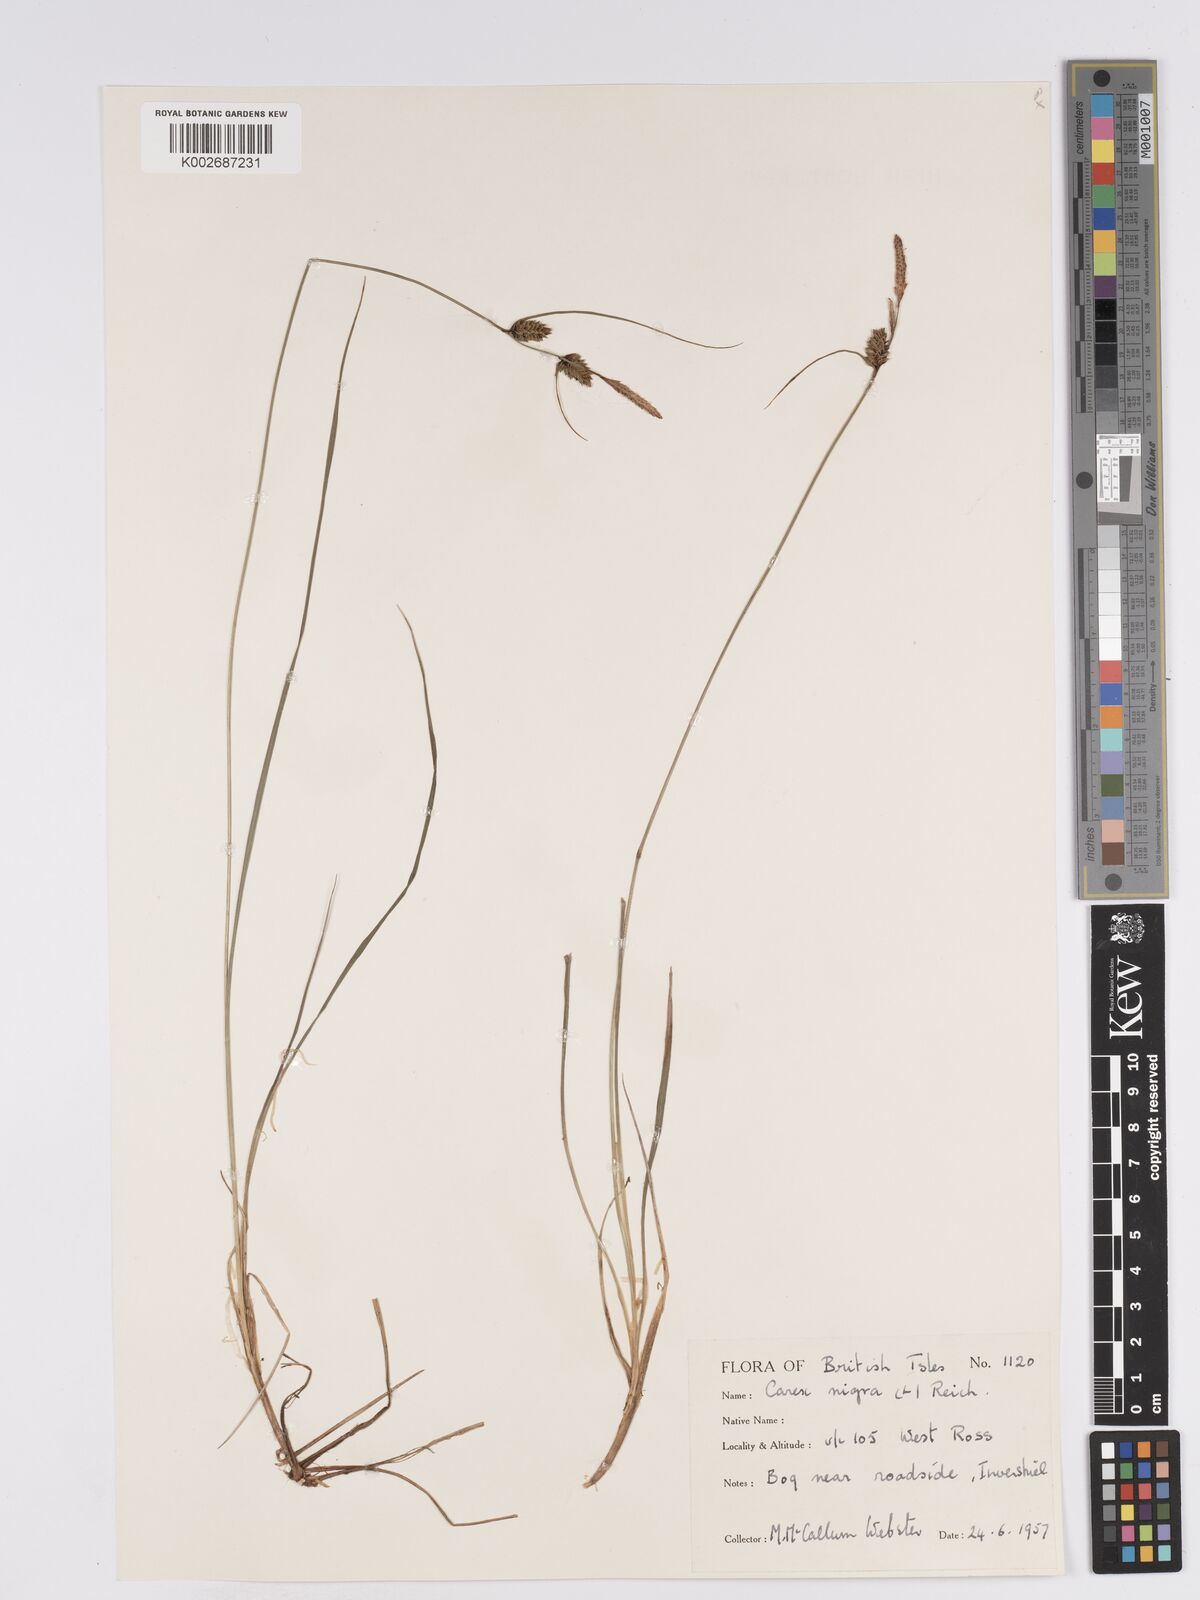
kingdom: Plantae
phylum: Tracheophyta
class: Liliopsida
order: Poales
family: Cyperaceae
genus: Carex
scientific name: Carex nigra
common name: Common sedge
